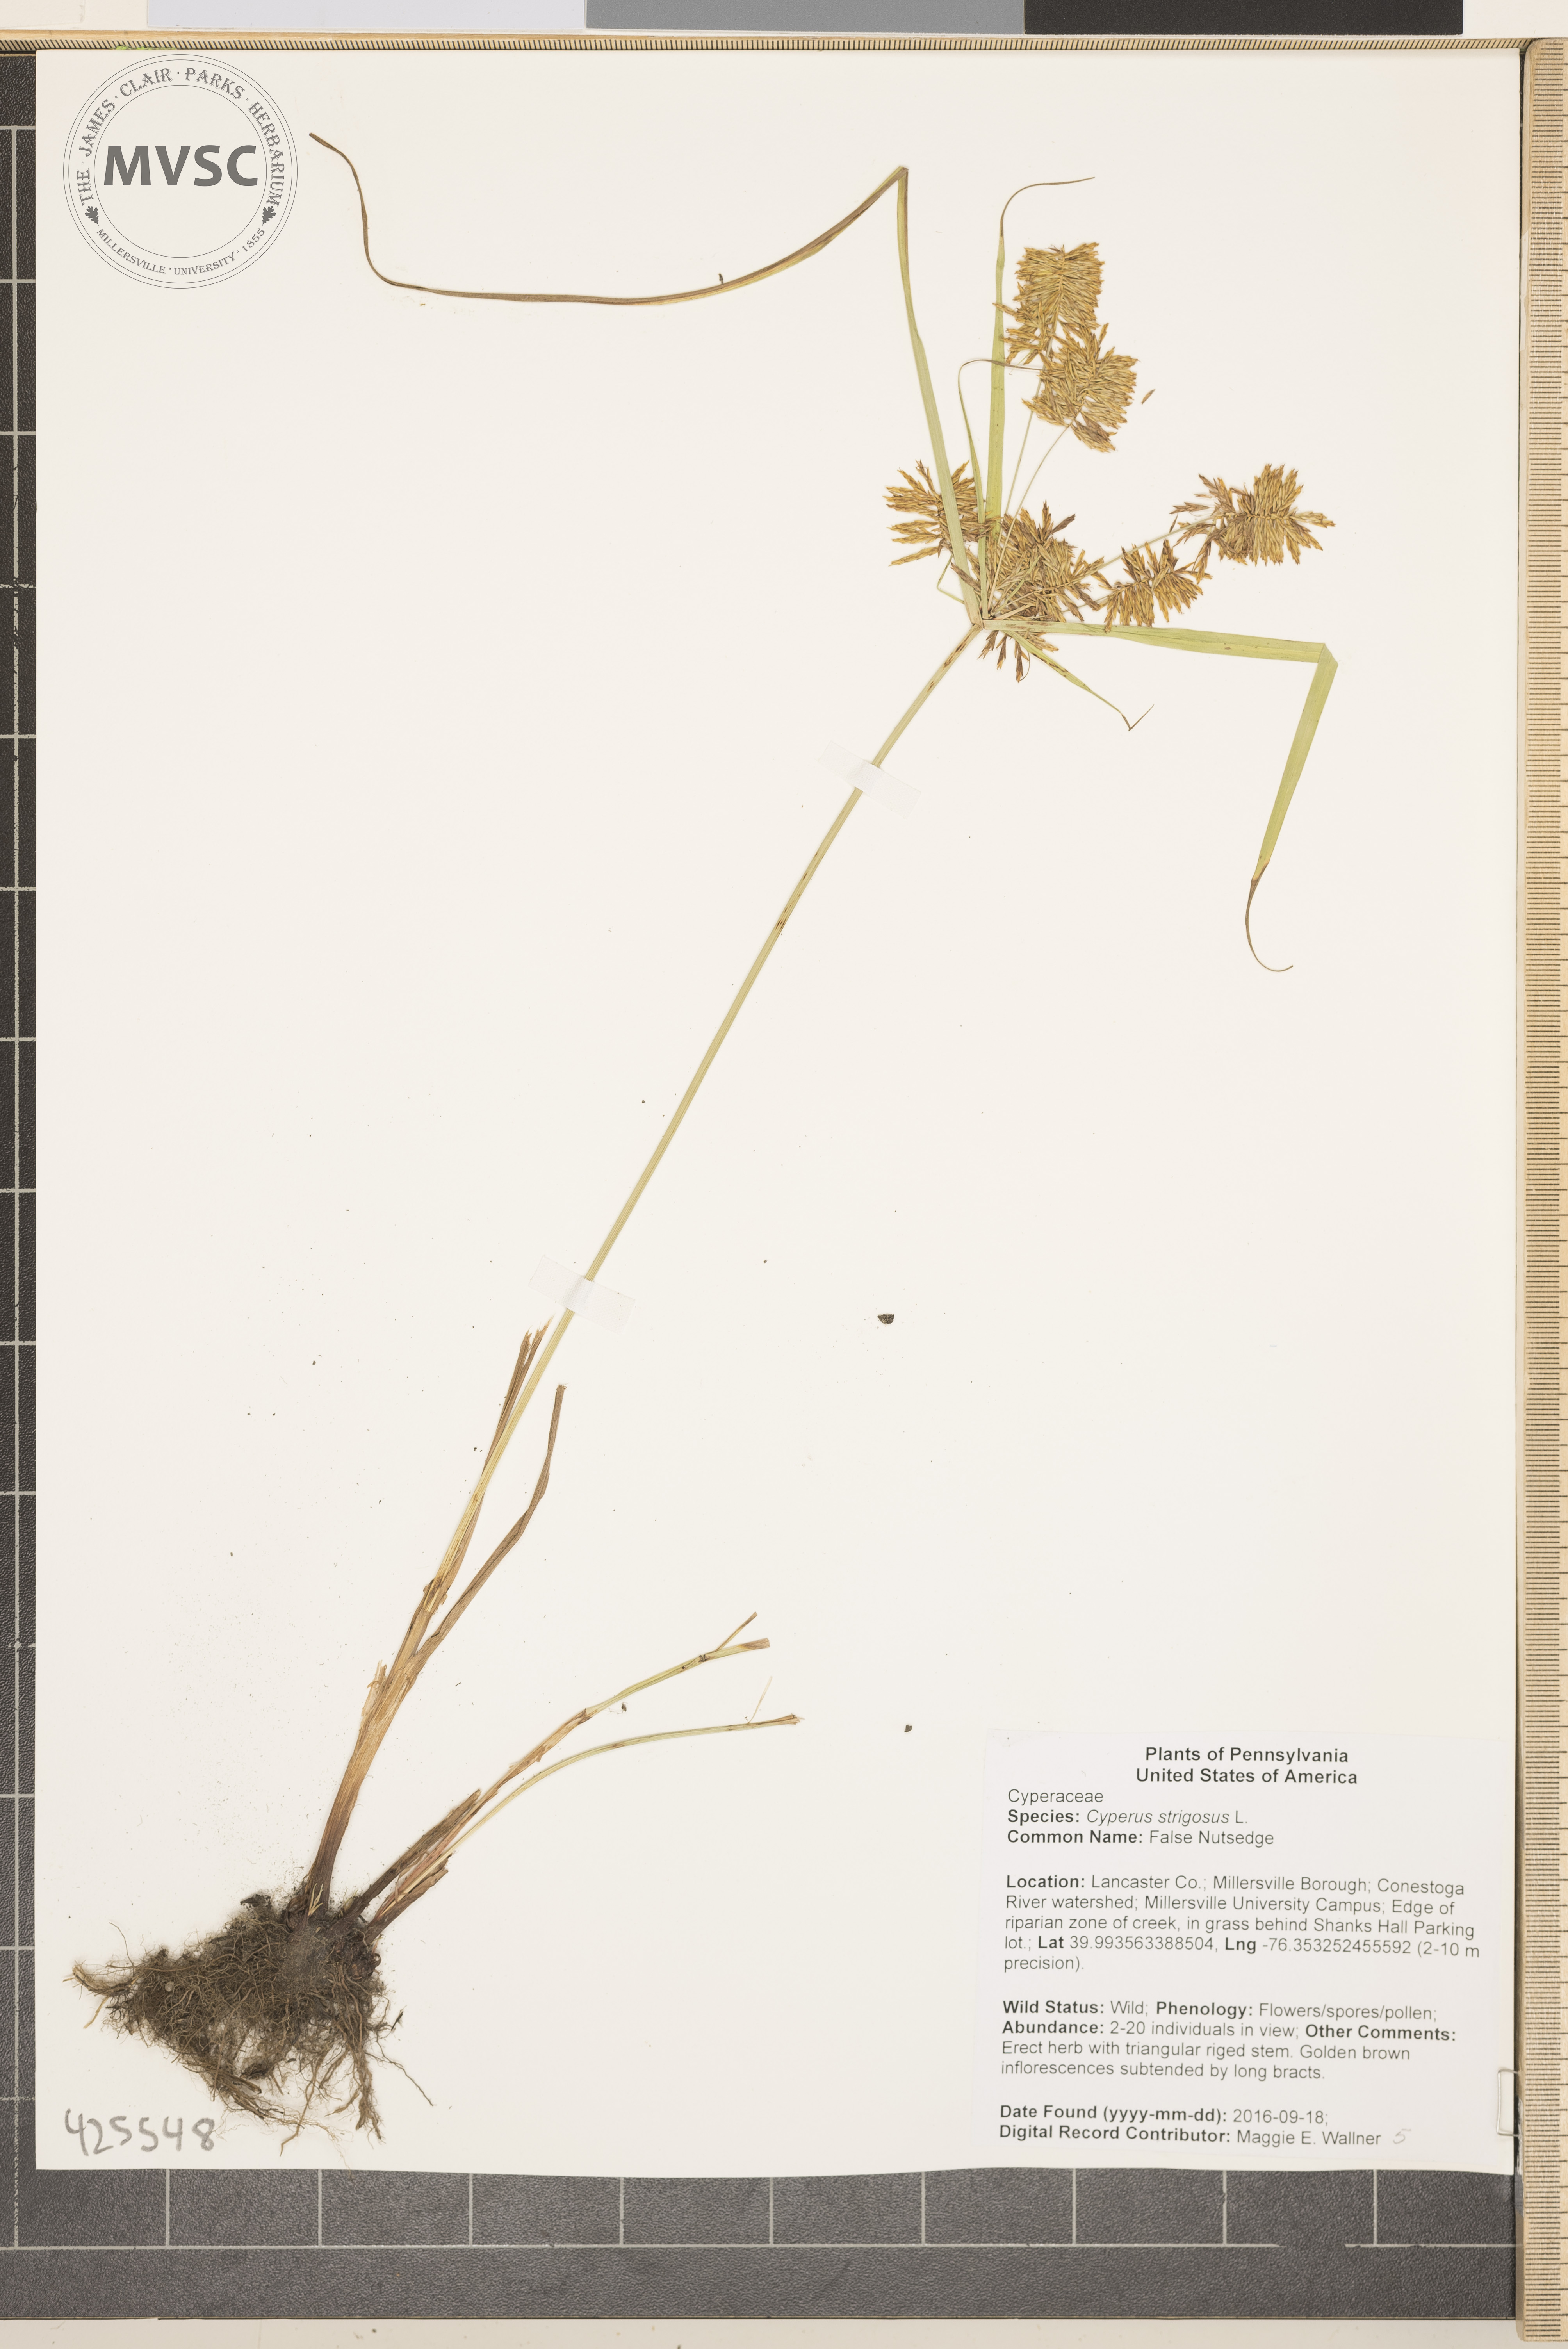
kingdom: Plantae
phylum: Tracheophyta
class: Liliopsida
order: Poales
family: Cyperaceae
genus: Cyperus
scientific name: Cyperus strigosus
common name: False Nutsedge
